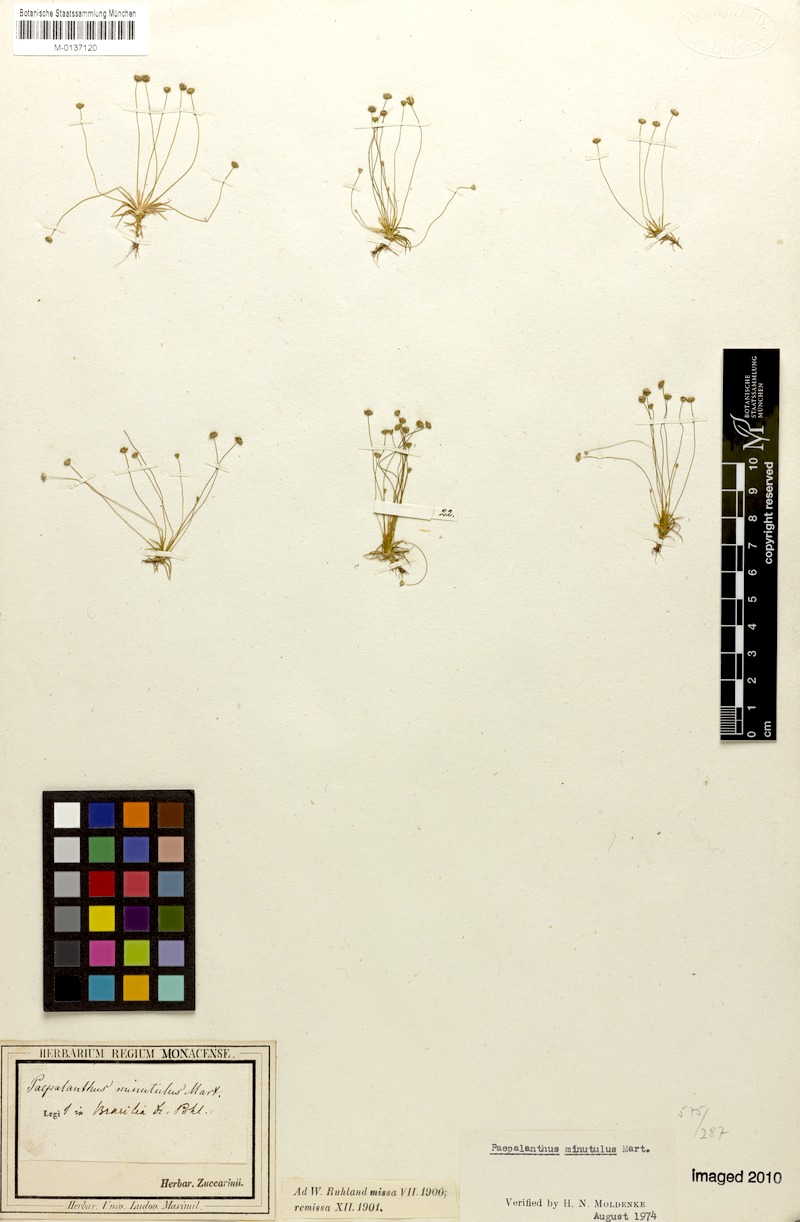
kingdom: Plantae
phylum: Tracheophyta
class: Liliopsida
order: Poales
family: Eriocaulaceae
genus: Paepalanthus
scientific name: Paepalanthus minutulus
